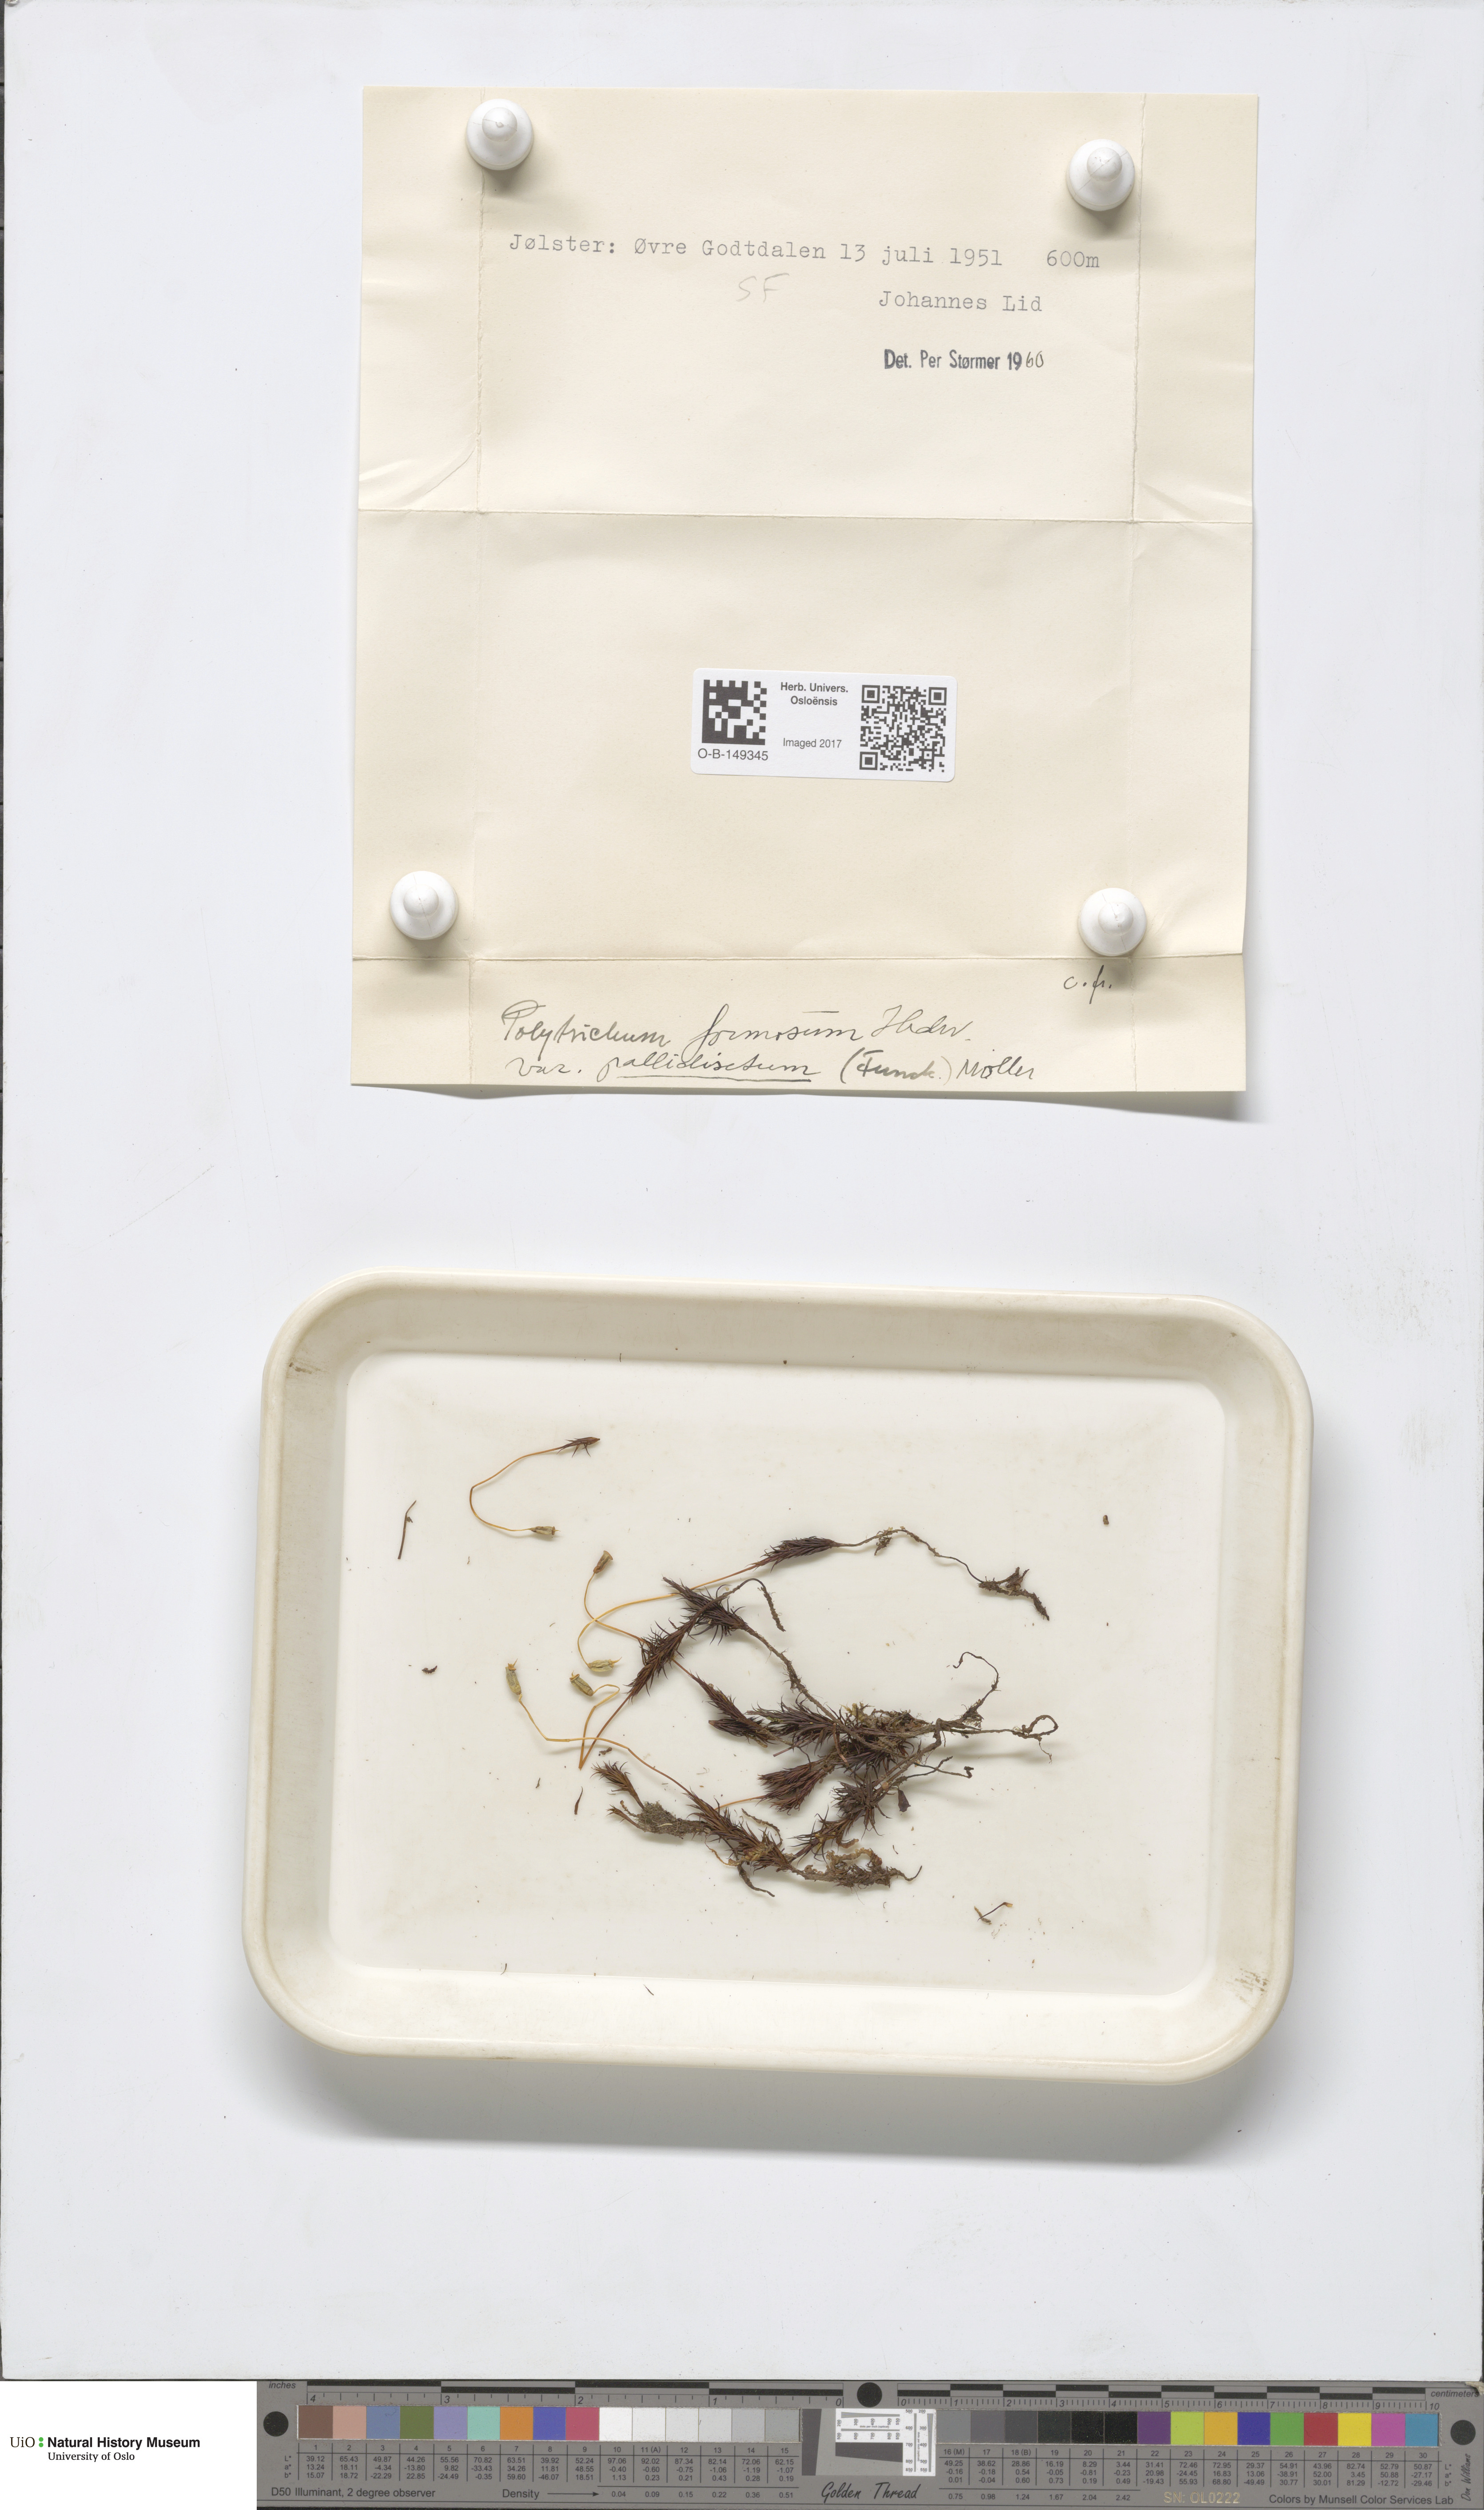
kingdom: Plantae
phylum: Bryophyta
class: Polytrichopsida
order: Polytrichales
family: Polytrichaceae
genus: Polytrichum
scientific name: Polytrichum formosum
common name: Bank haircap moss
